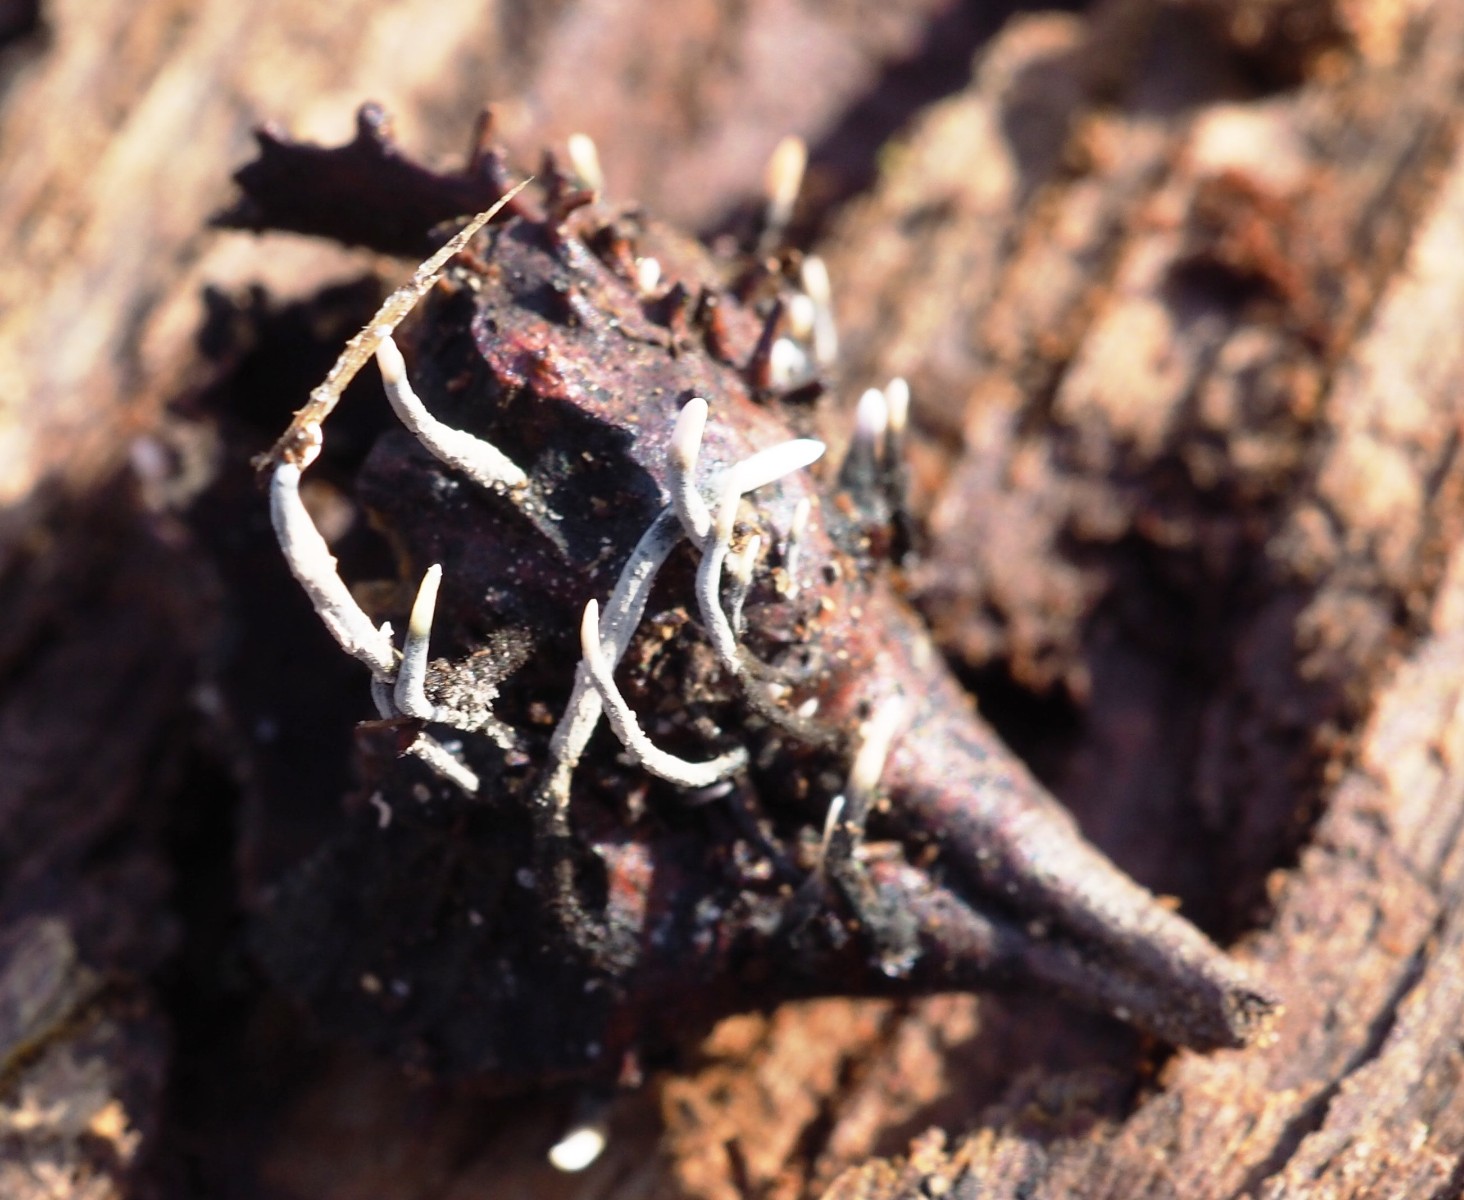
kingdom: Fungi
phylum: Ascomycota
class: Sordariomycetes
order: Xylariales
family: Xylariaceae
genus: Xylaria
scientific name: Xylaria carpophila
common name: bogskål-stødsvamp
